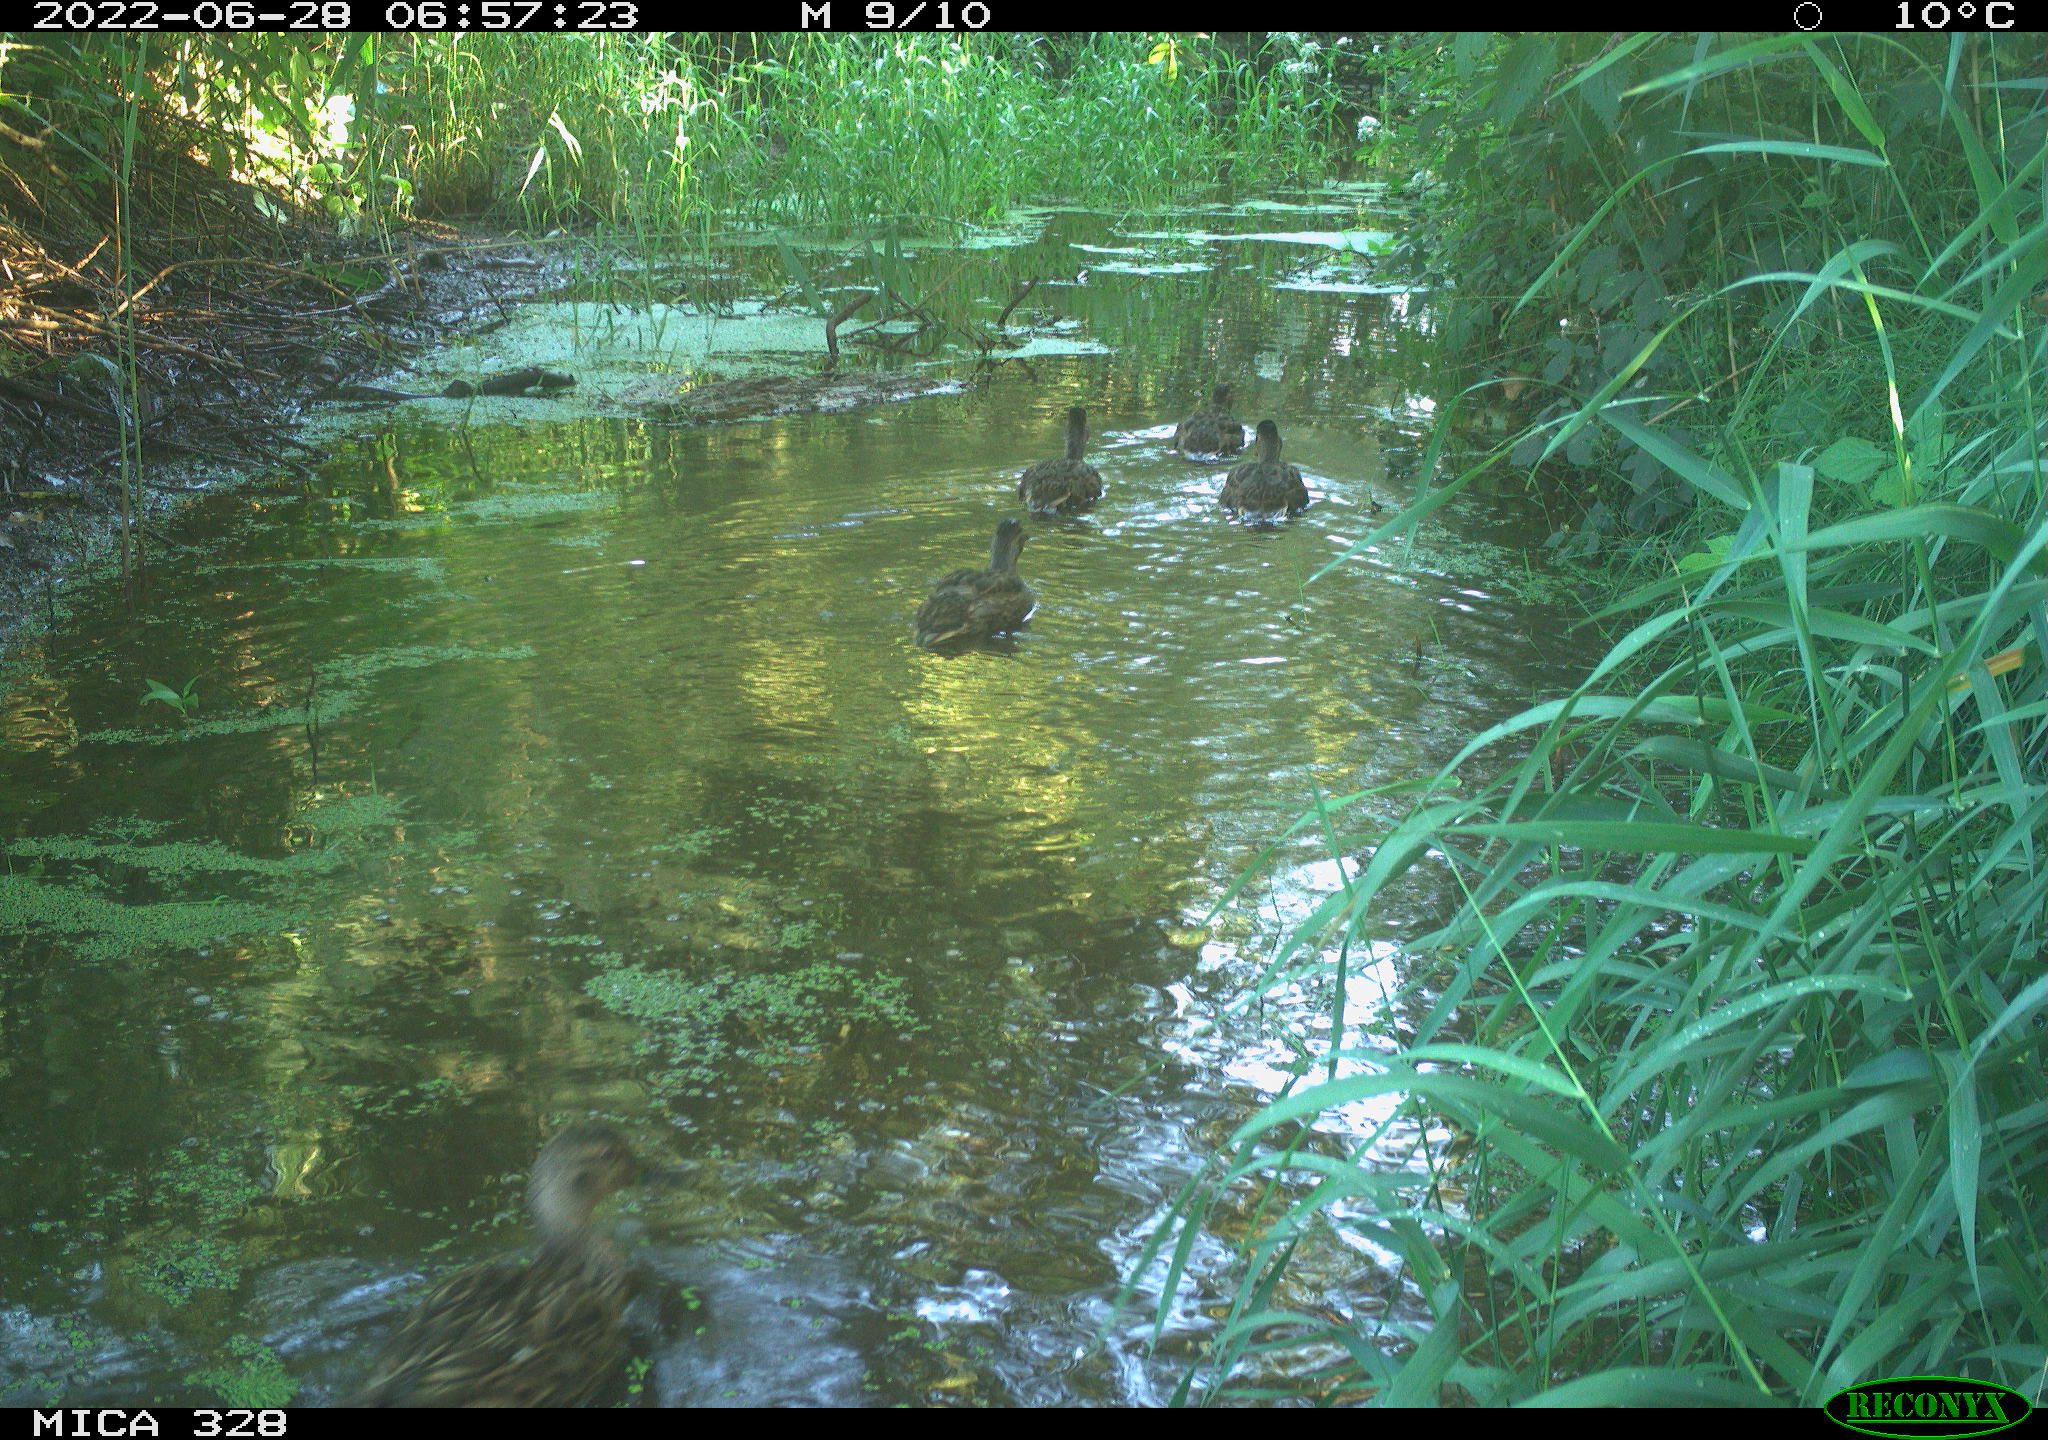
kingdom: Animalia
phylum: Chordata
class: Aves
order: Anseriformes
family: Anatidae
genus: Anas
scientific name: Anas
